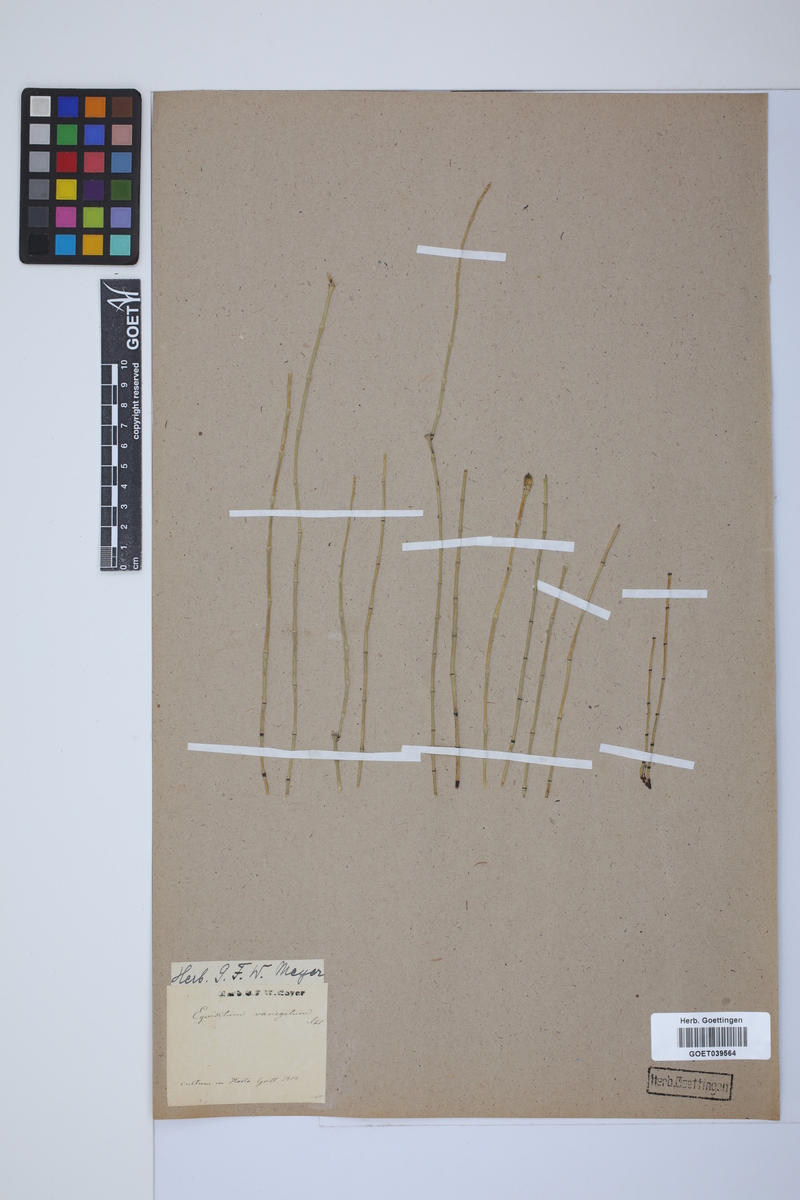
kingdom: Plantae
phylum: Tracheophyta
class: Polypodiopsida
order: Equisetales
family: Equisetaceae
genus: Equisetum
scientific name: Equisetum variegatum
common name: Variegated horsetail
